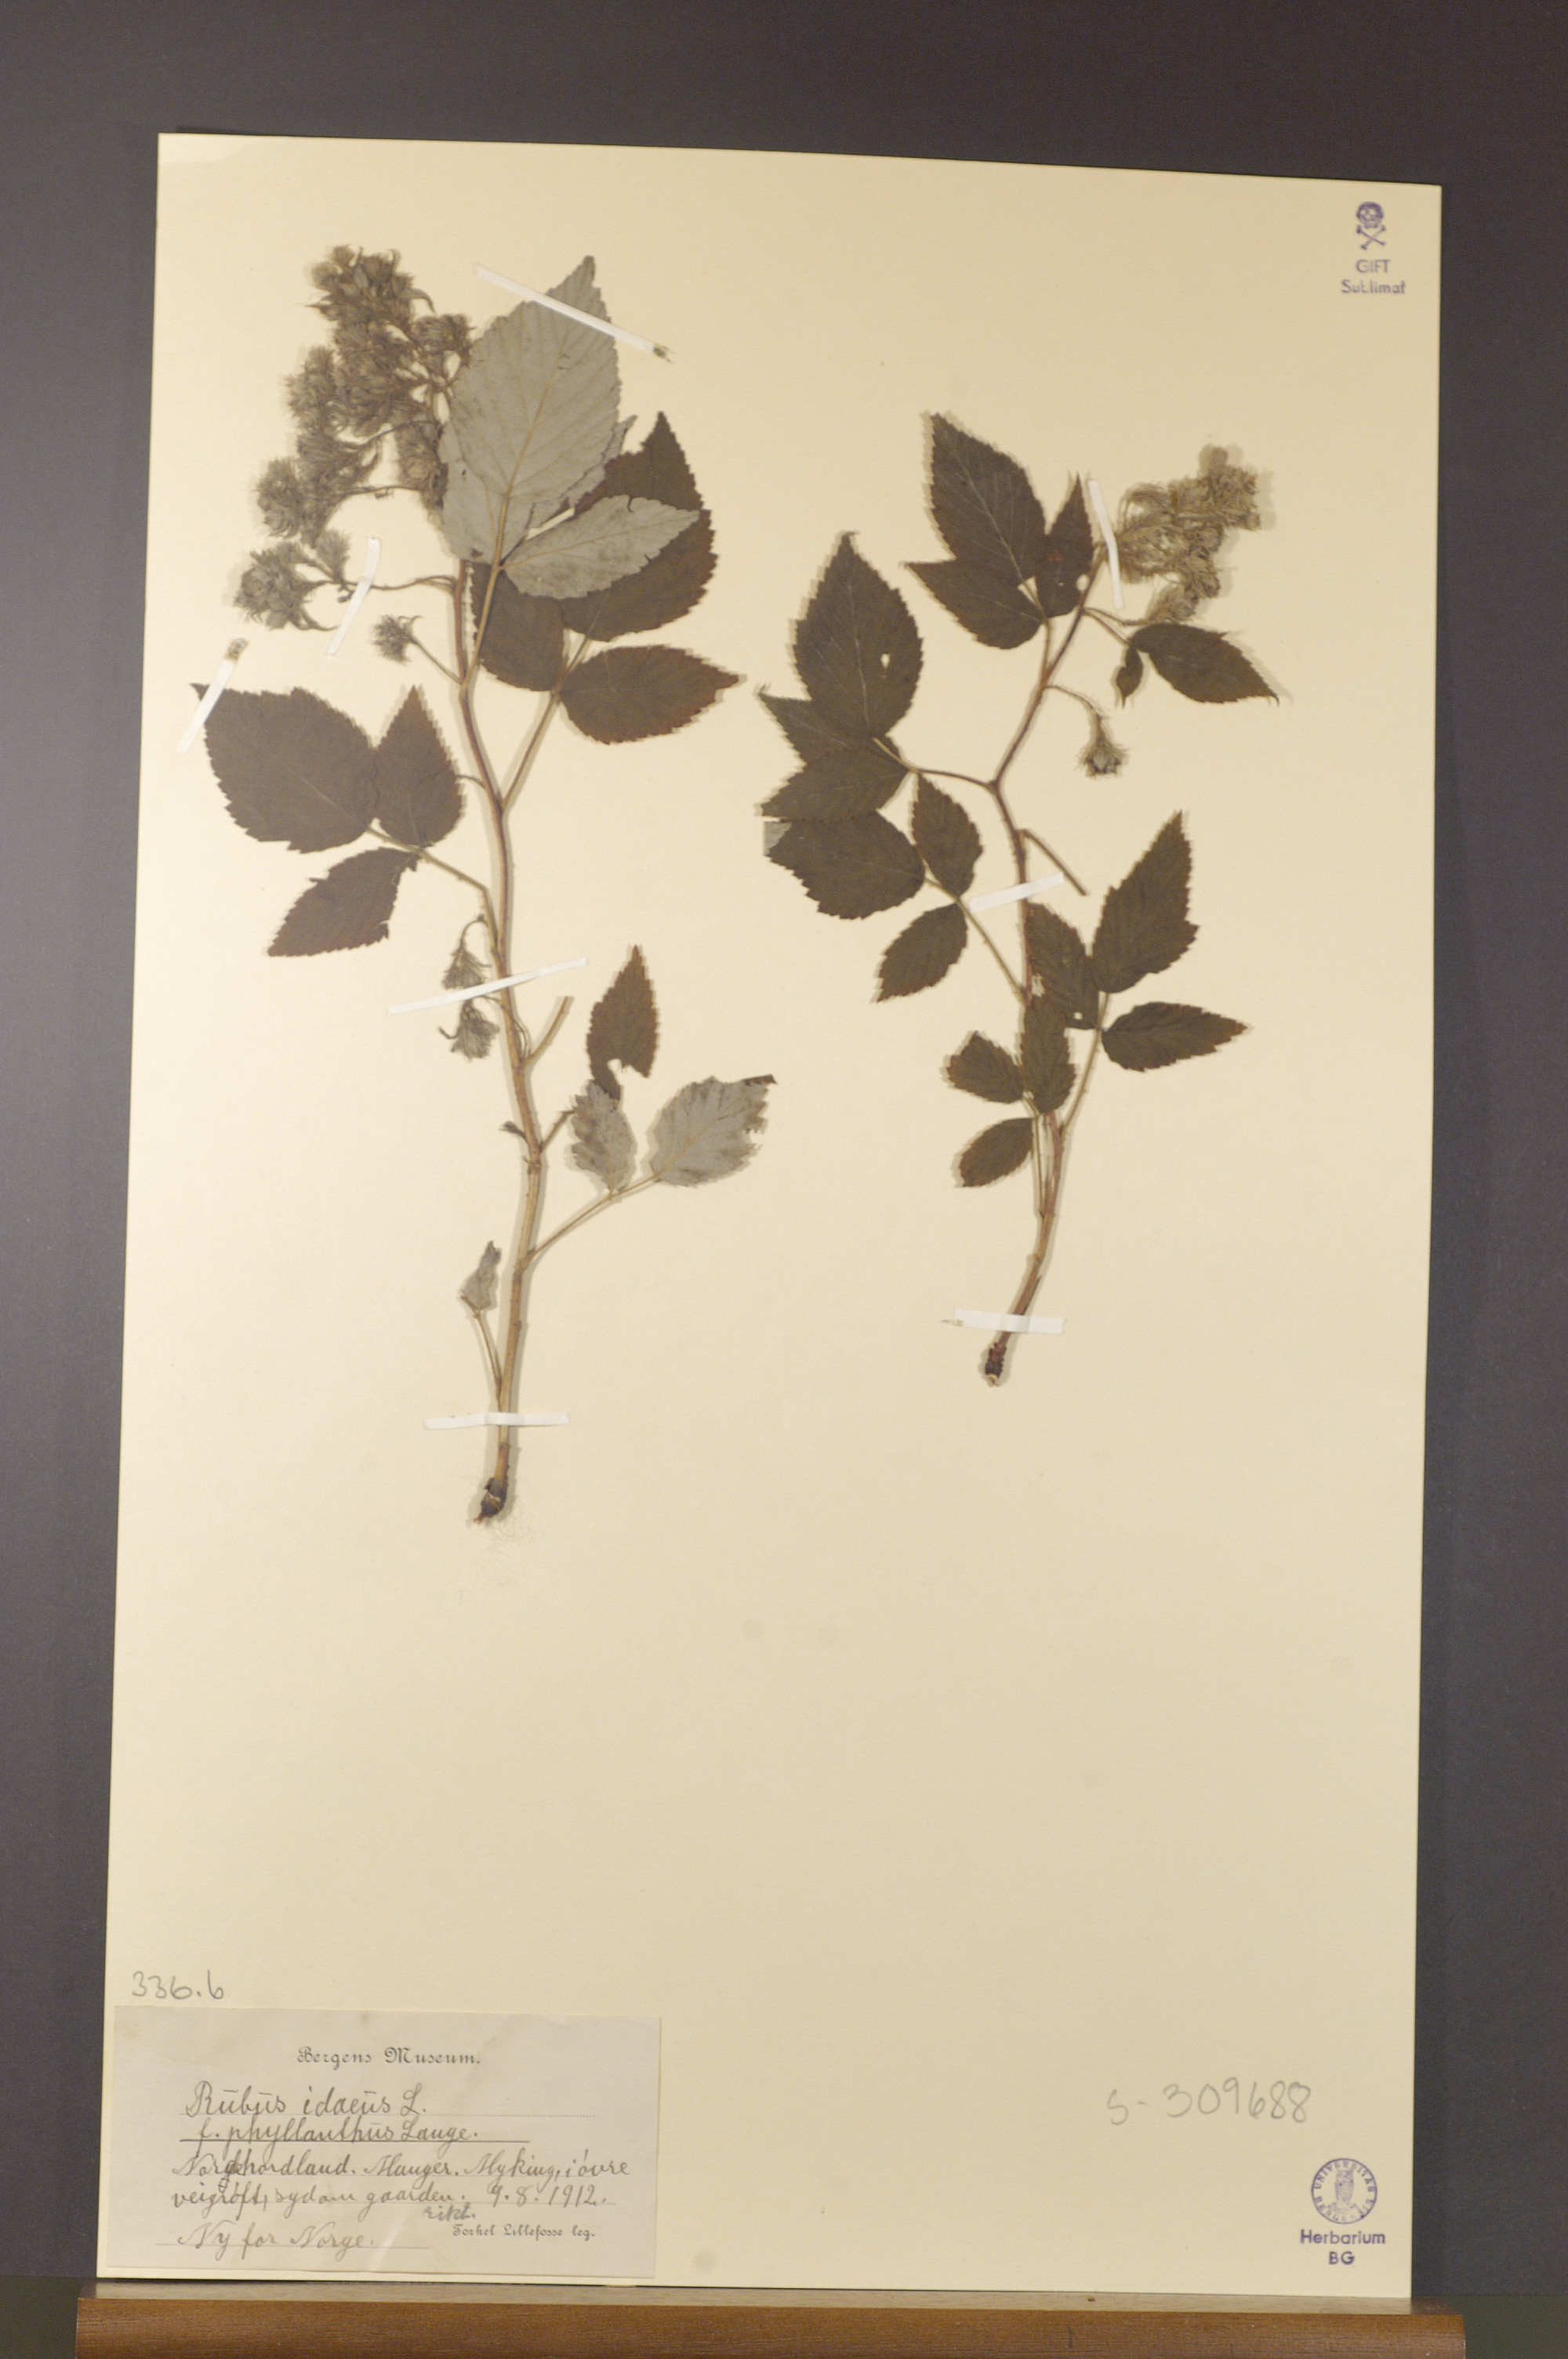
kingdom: Plantae
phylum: Tracheophyta
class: Magnoliopsida
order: Rosales
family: Rosaceae
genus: Rubus
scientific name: Rubus idaeus
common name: Raspberry
